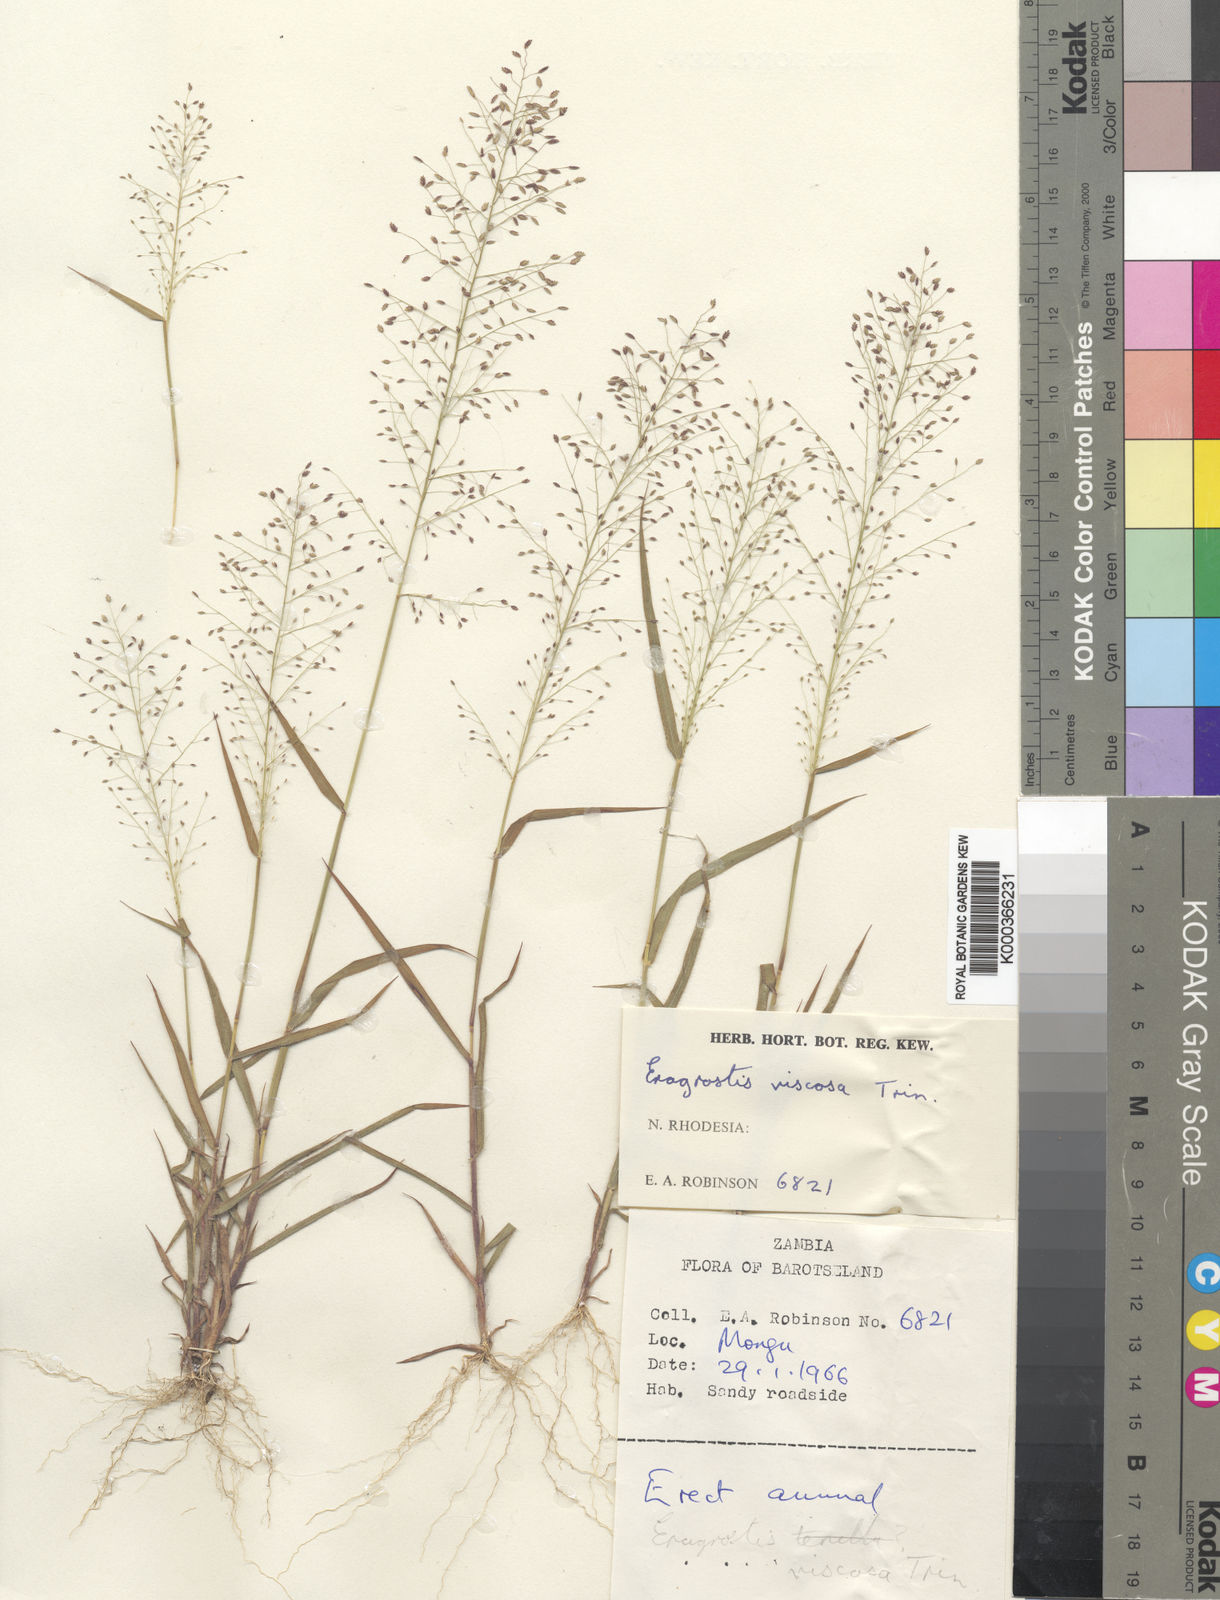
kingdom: Plantae
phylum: Tracheophyta
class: Liliopsida
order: Poales
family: Poaceae
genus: Eragrostis
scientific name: Eragrostis viscosa
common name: Sticky love grass
